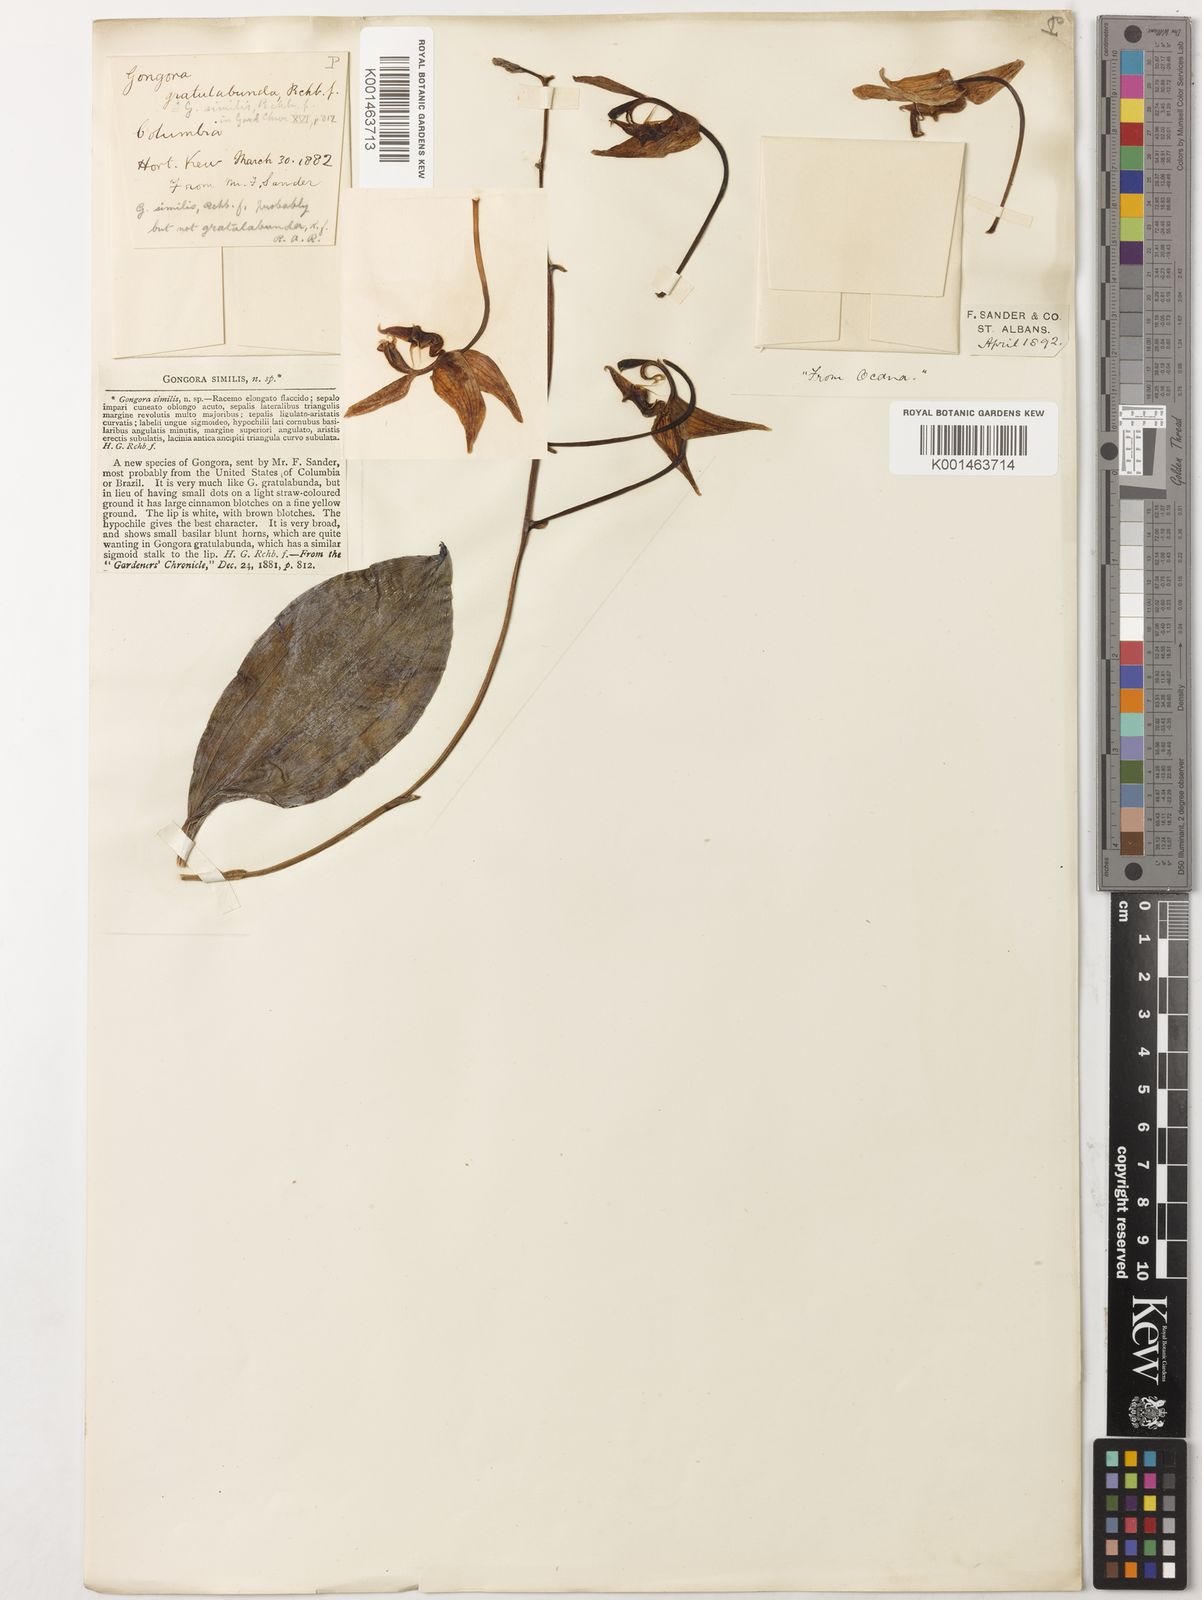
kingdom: Plantae
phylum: Tracheophyta
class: Liliopsida
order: Asparagales
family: Orchidaceae
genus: Gongora
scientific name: Gongora gratulabunda
